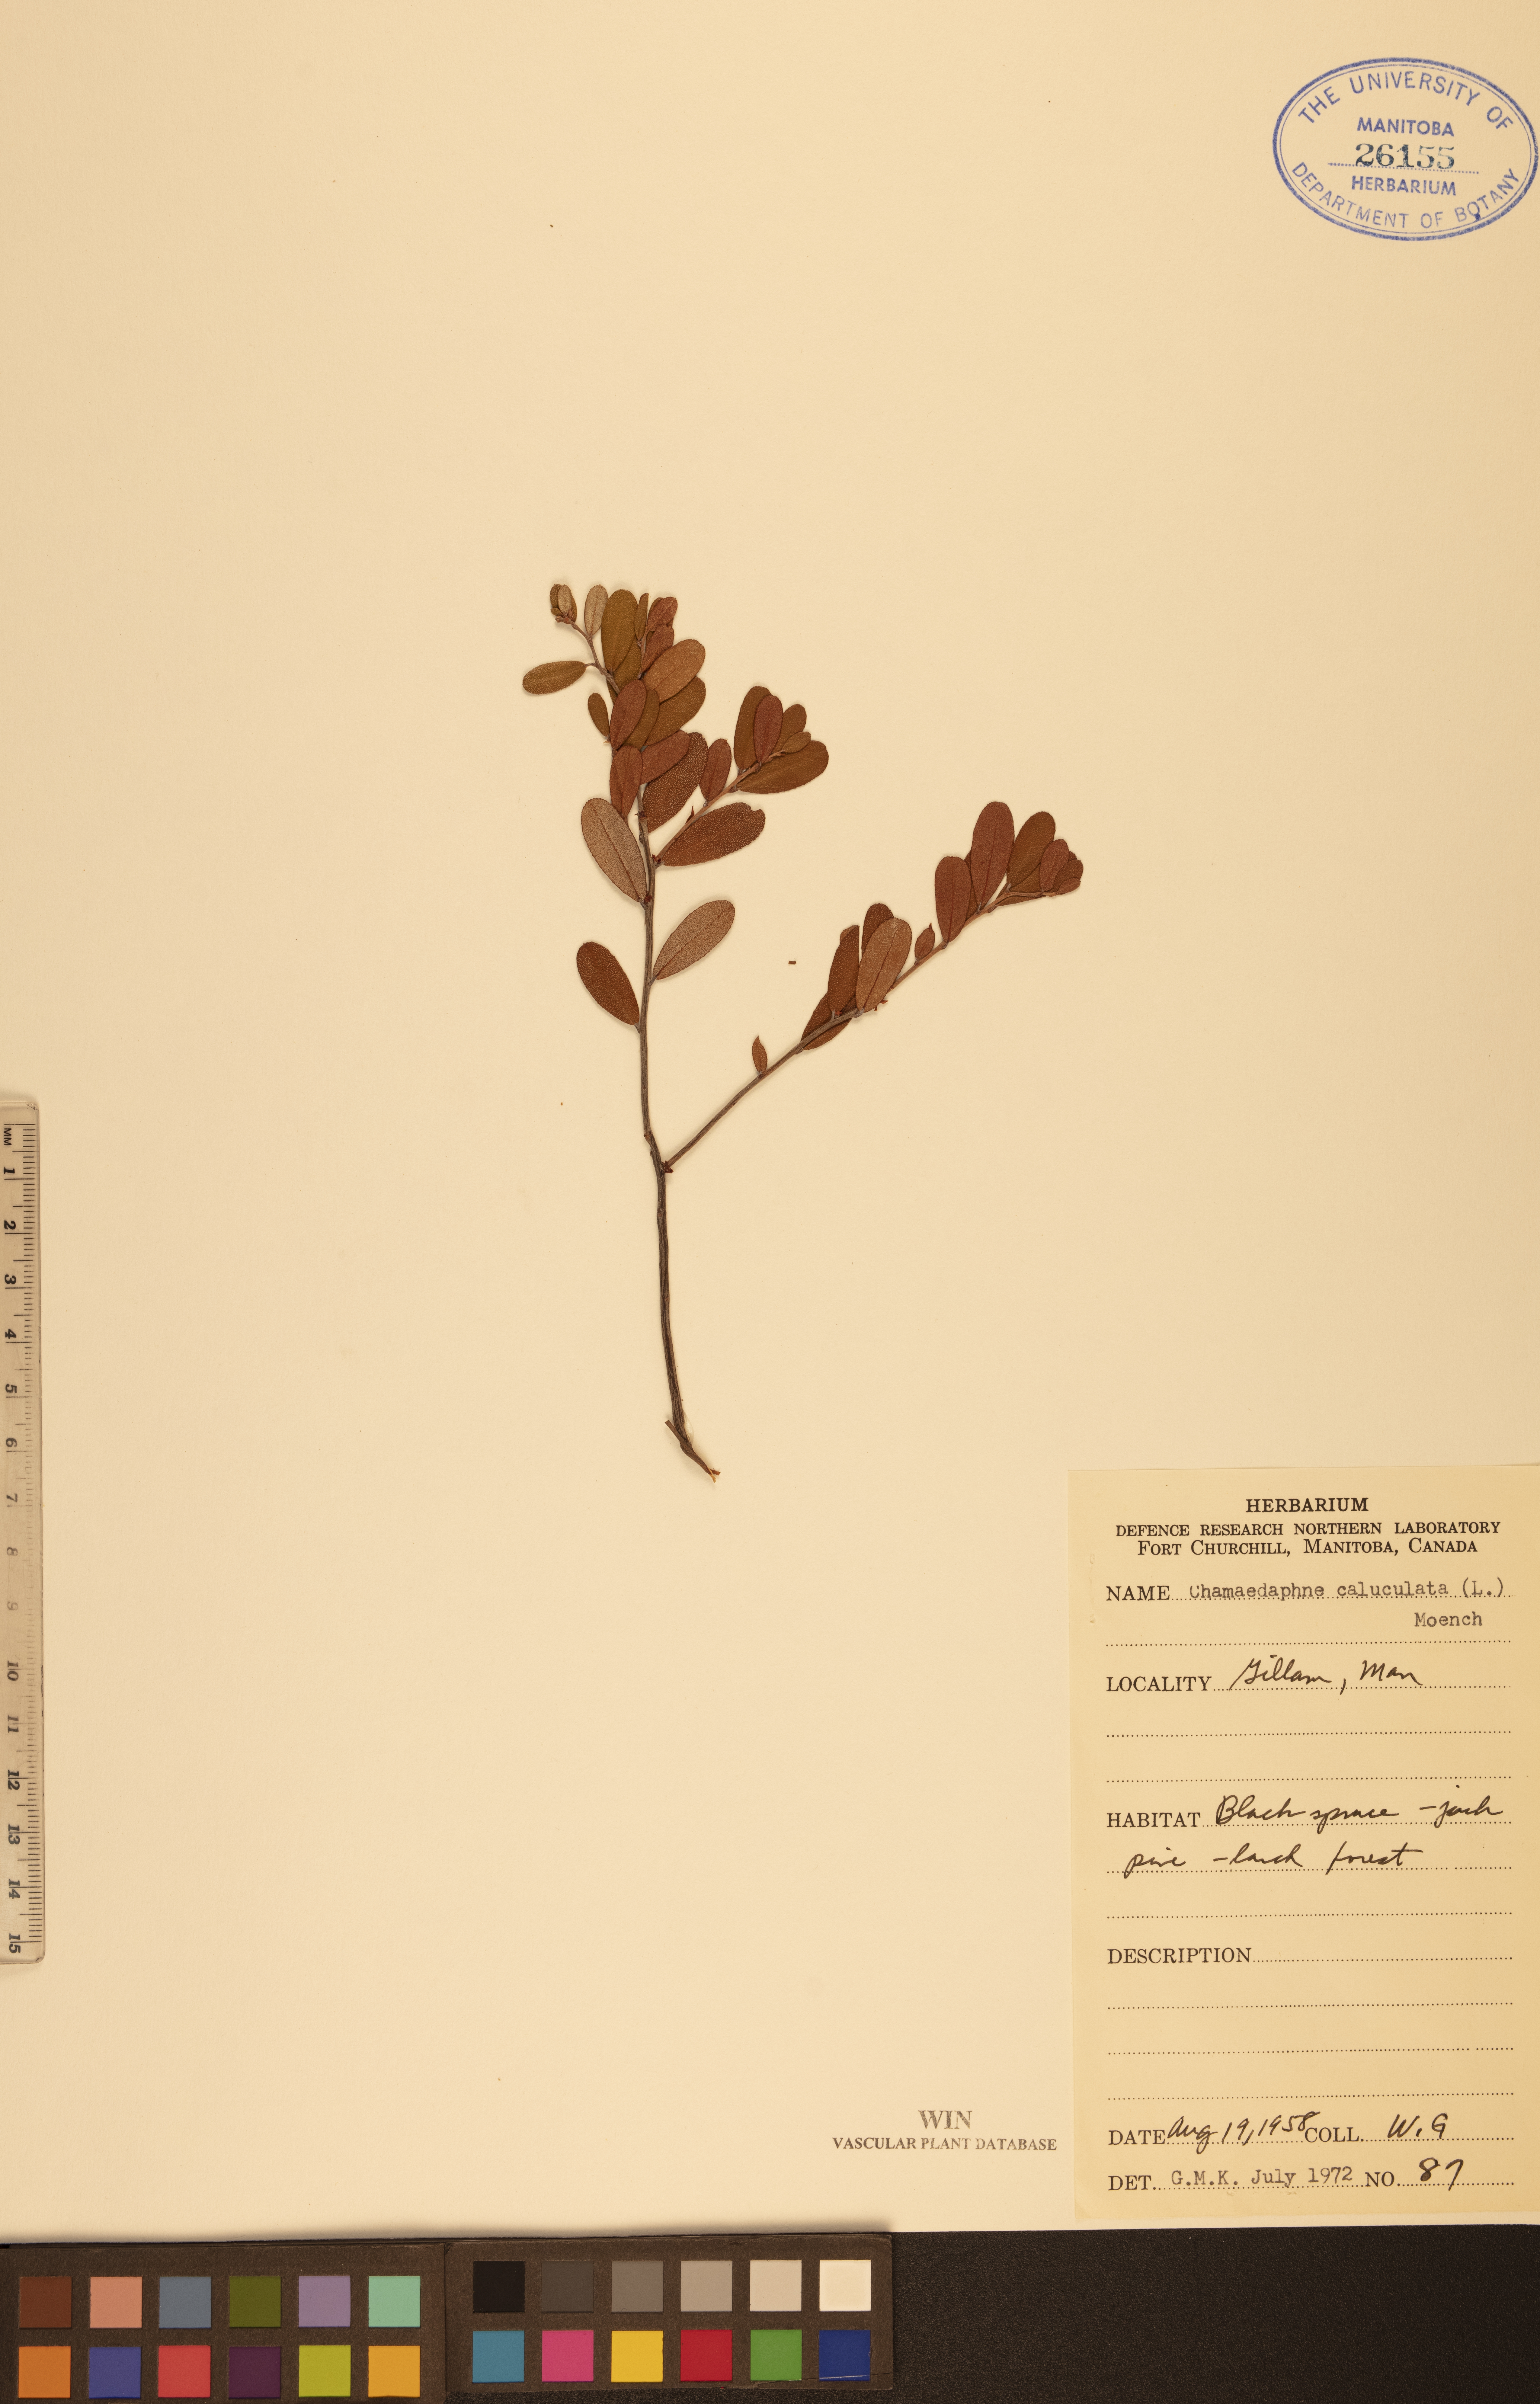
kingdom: Plantae
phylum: Tracheophyta
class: Magnoliopsida
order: Ericales
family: Ericaceae
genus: Chamaedaphne
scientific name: Chamaedaphne calyculata
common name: Leatherleaf
